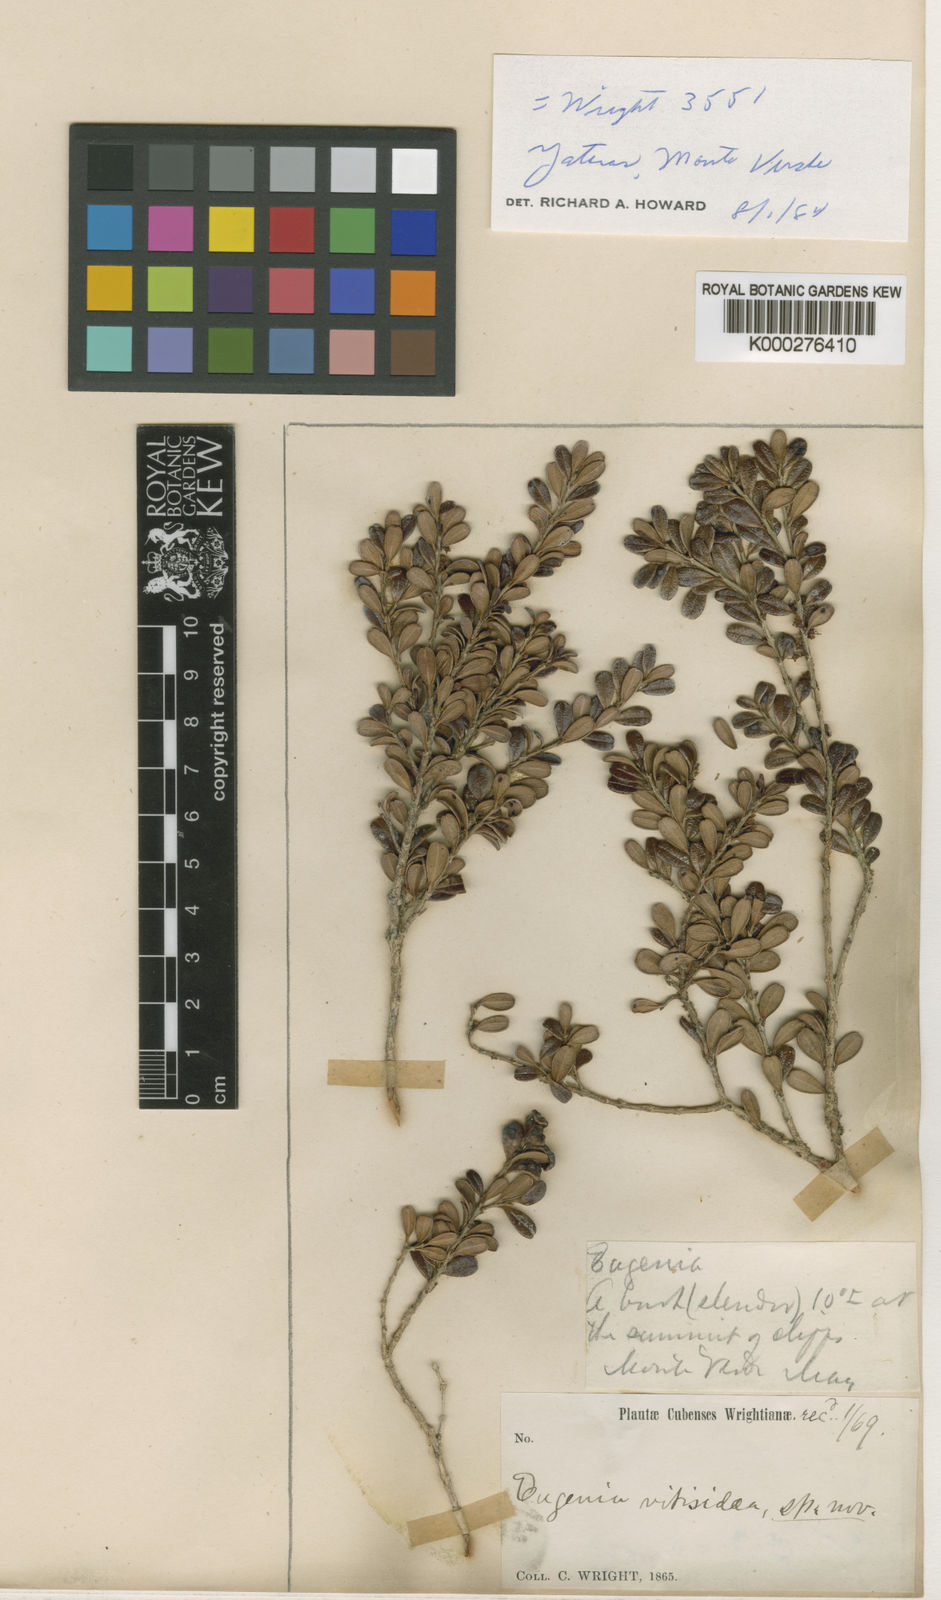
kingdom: Plantae
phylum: Tracheophyta
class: Magnoliopsida
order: Myrtales
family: Myrtaceae
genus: Calycolpus
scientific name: Calycolpus vitis-idaea
